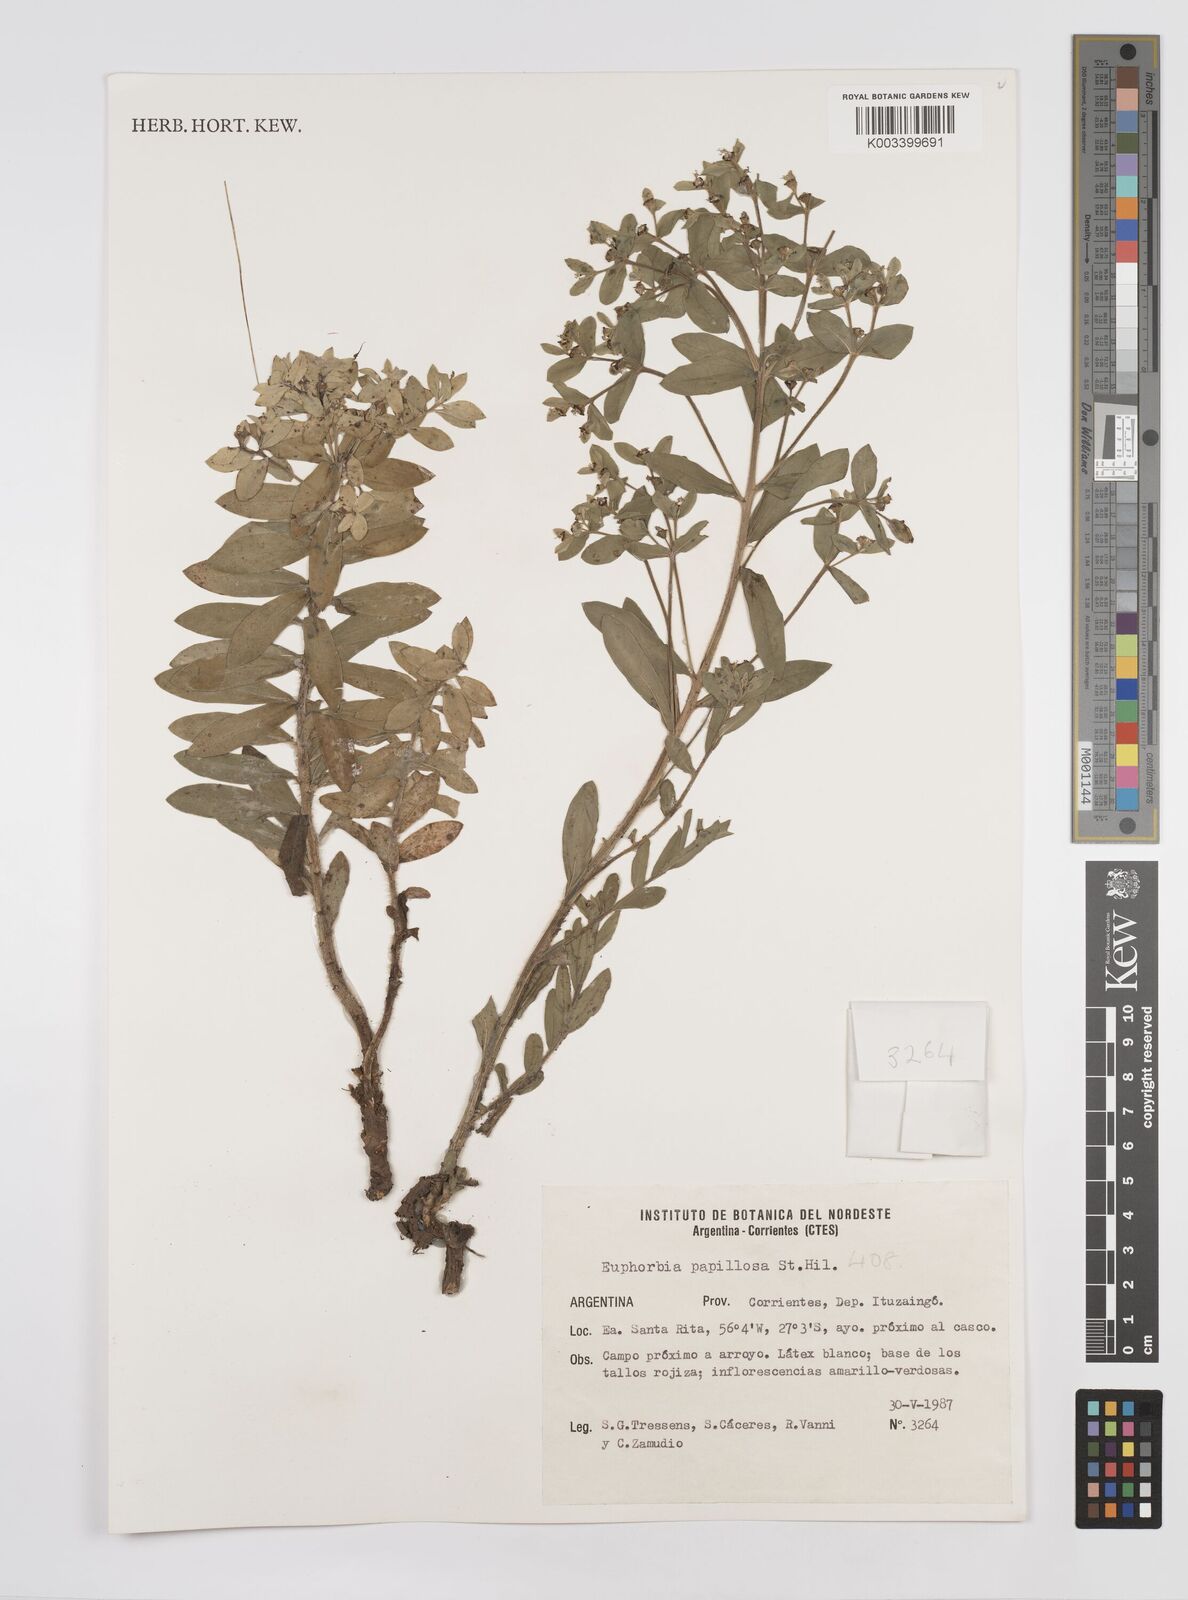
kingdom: Plantae
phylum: Tracheophyta
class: Magnoliopsida
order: Malpighiales
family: Euphorbiaceae
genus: Euphorbia
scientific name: Euphorbia
